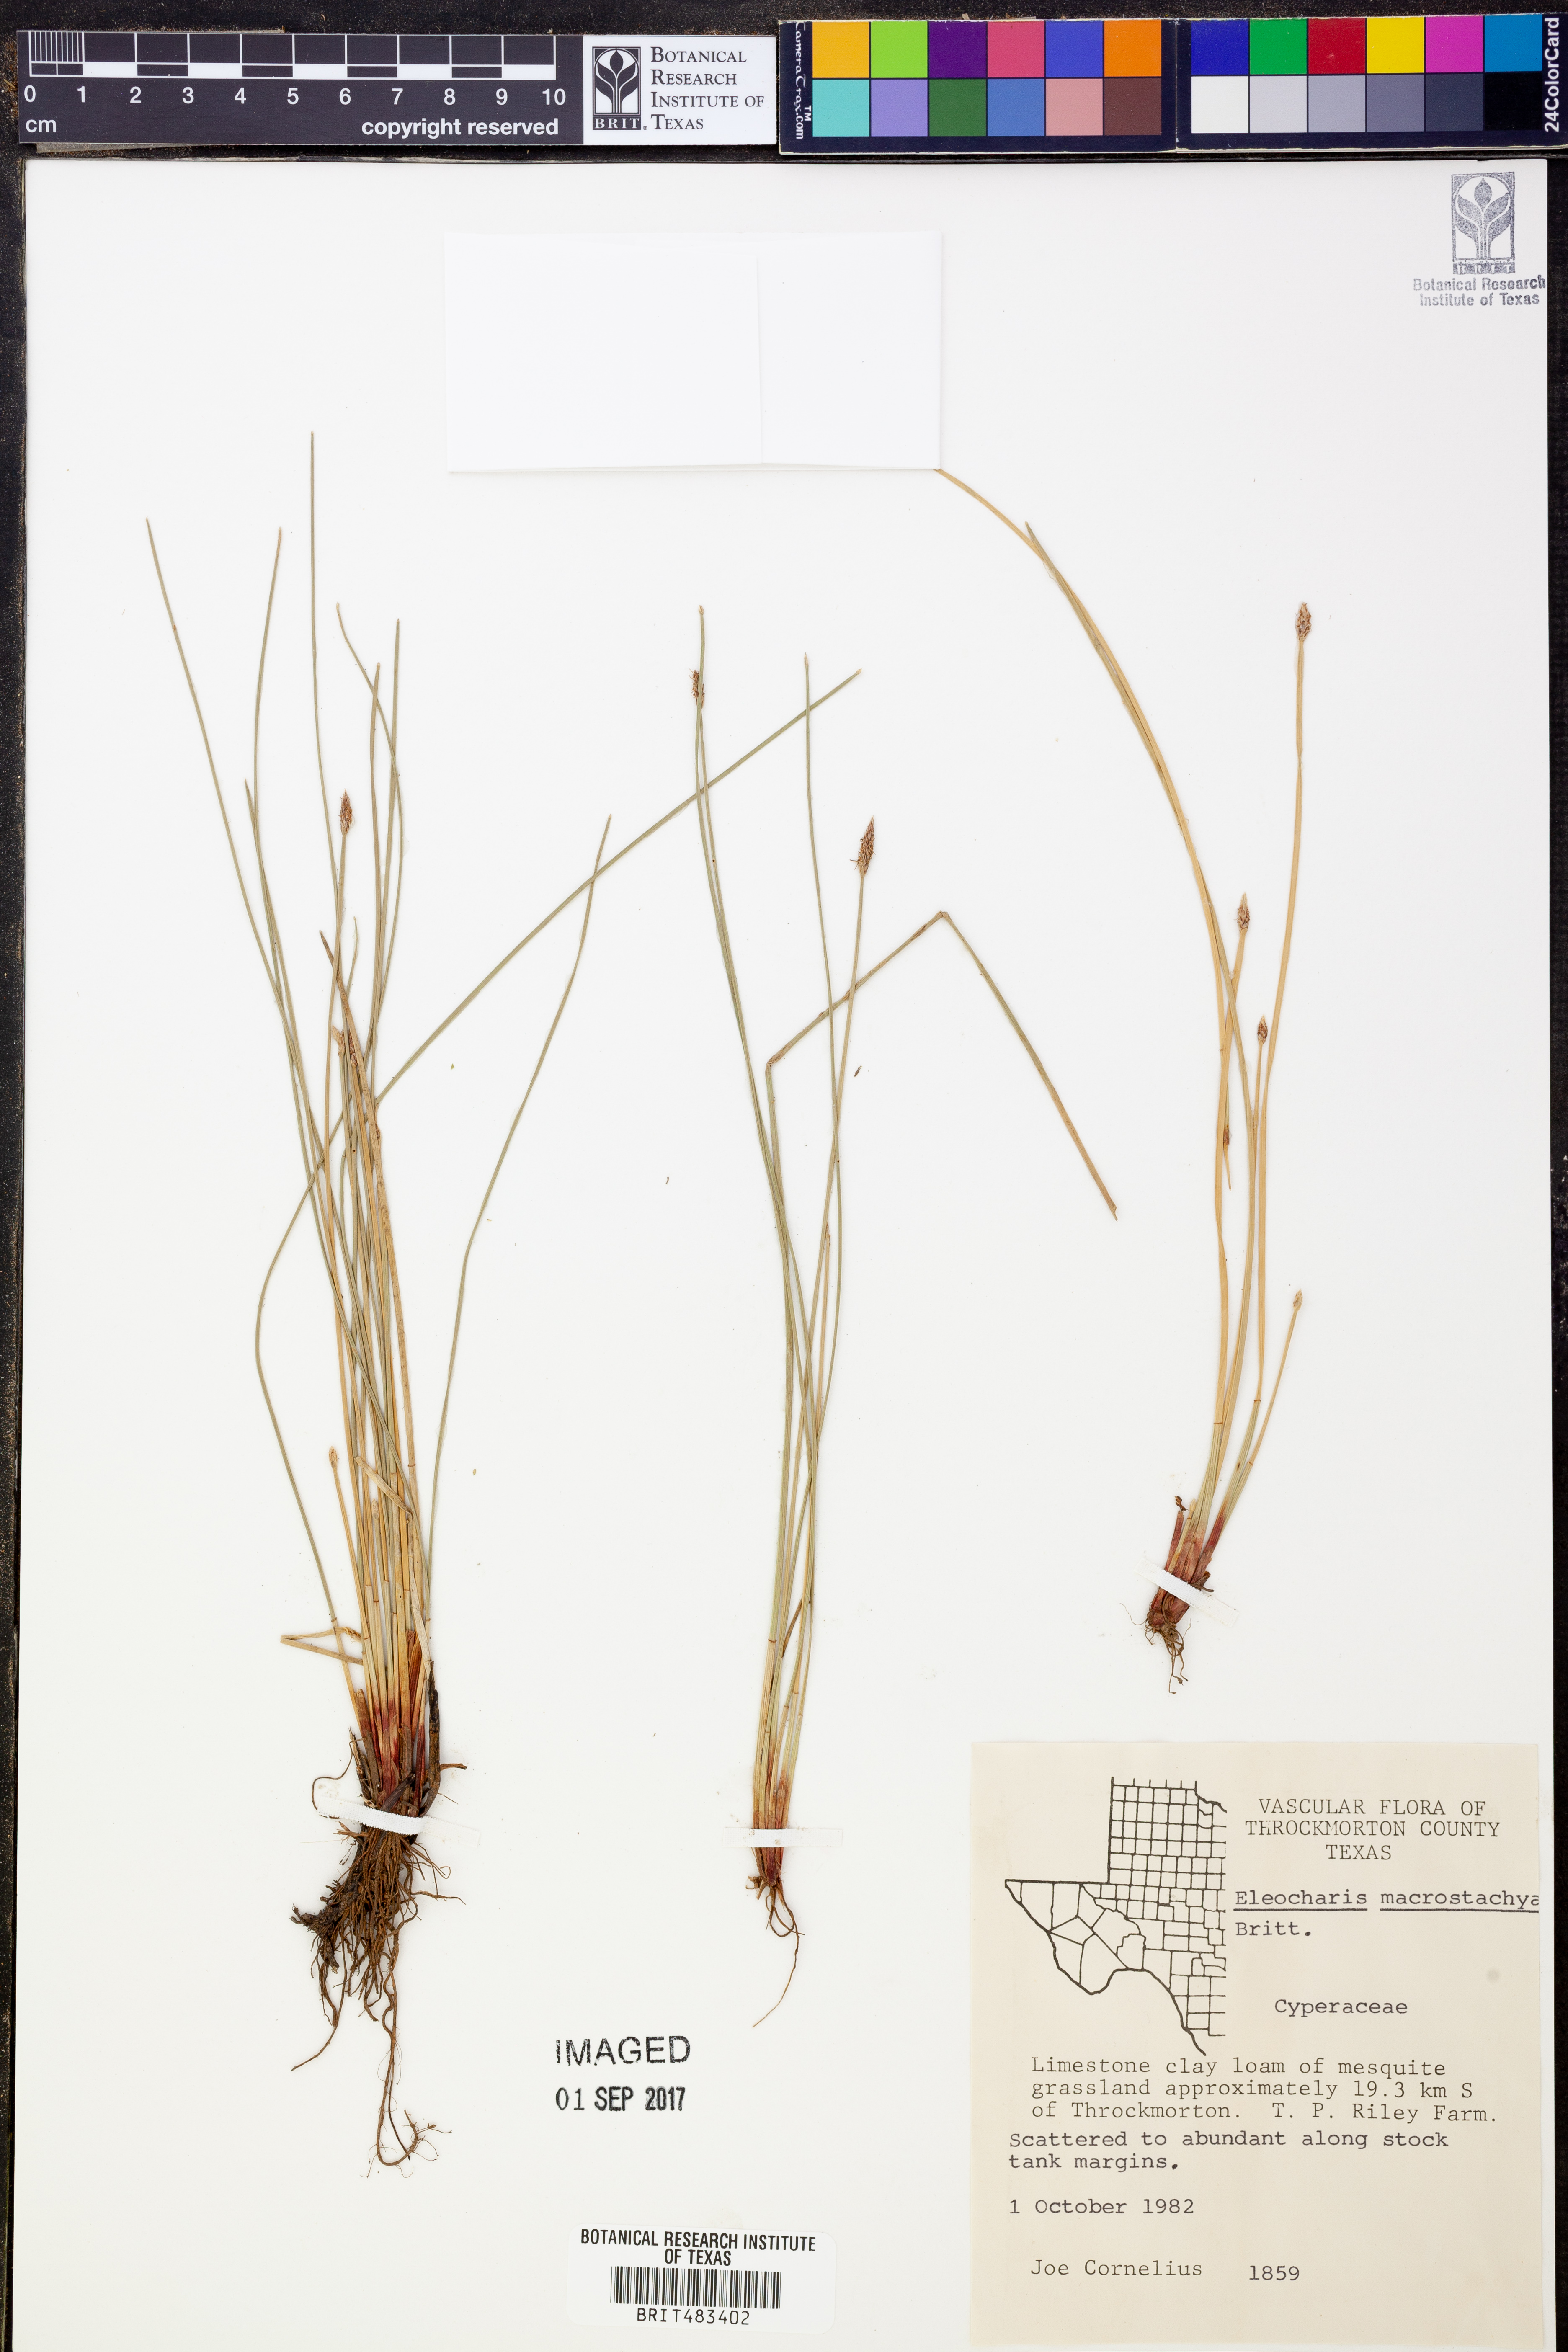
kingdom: Plantae
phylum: Tracheophyta
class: Liliopsida
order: Poales
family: Cyperaceae
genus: Eleocharis
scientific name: Eleocharis macrostachya
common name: Pale spikerush
